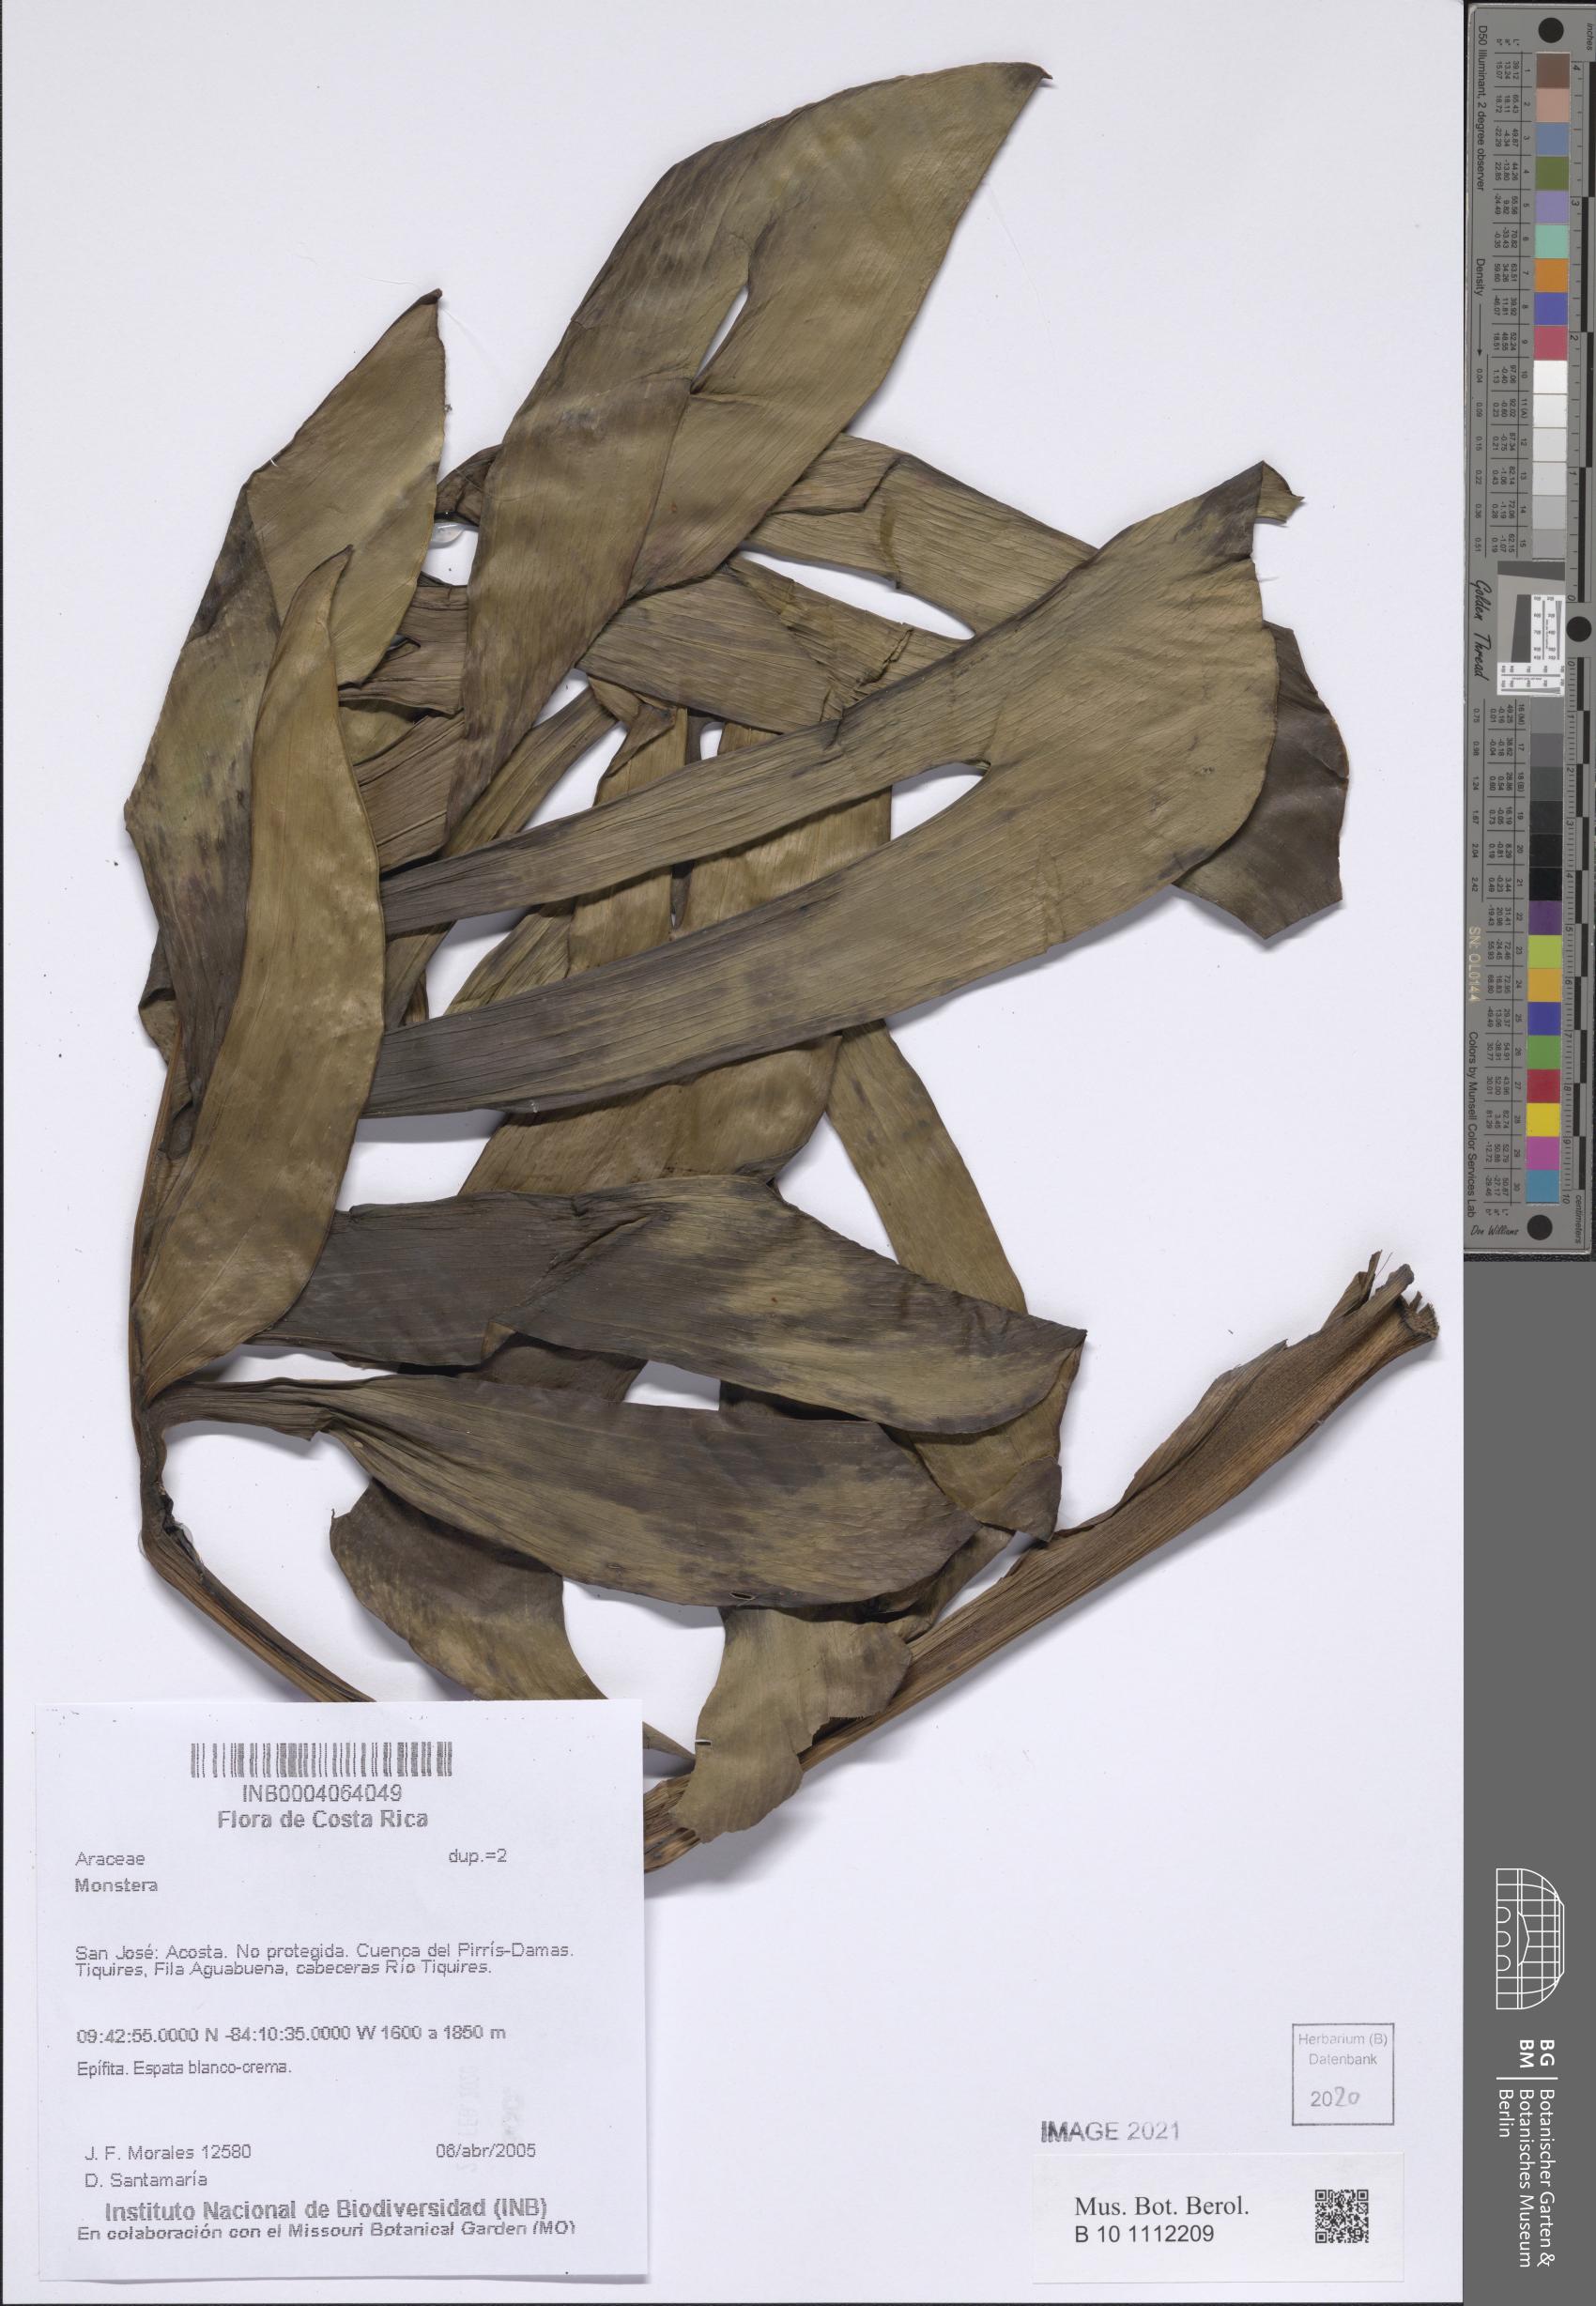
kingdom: Plantae
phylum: Tracheophyta
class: Liliopsida
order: Alismatales
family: Araceae
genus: Monstera
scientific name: Monstera
